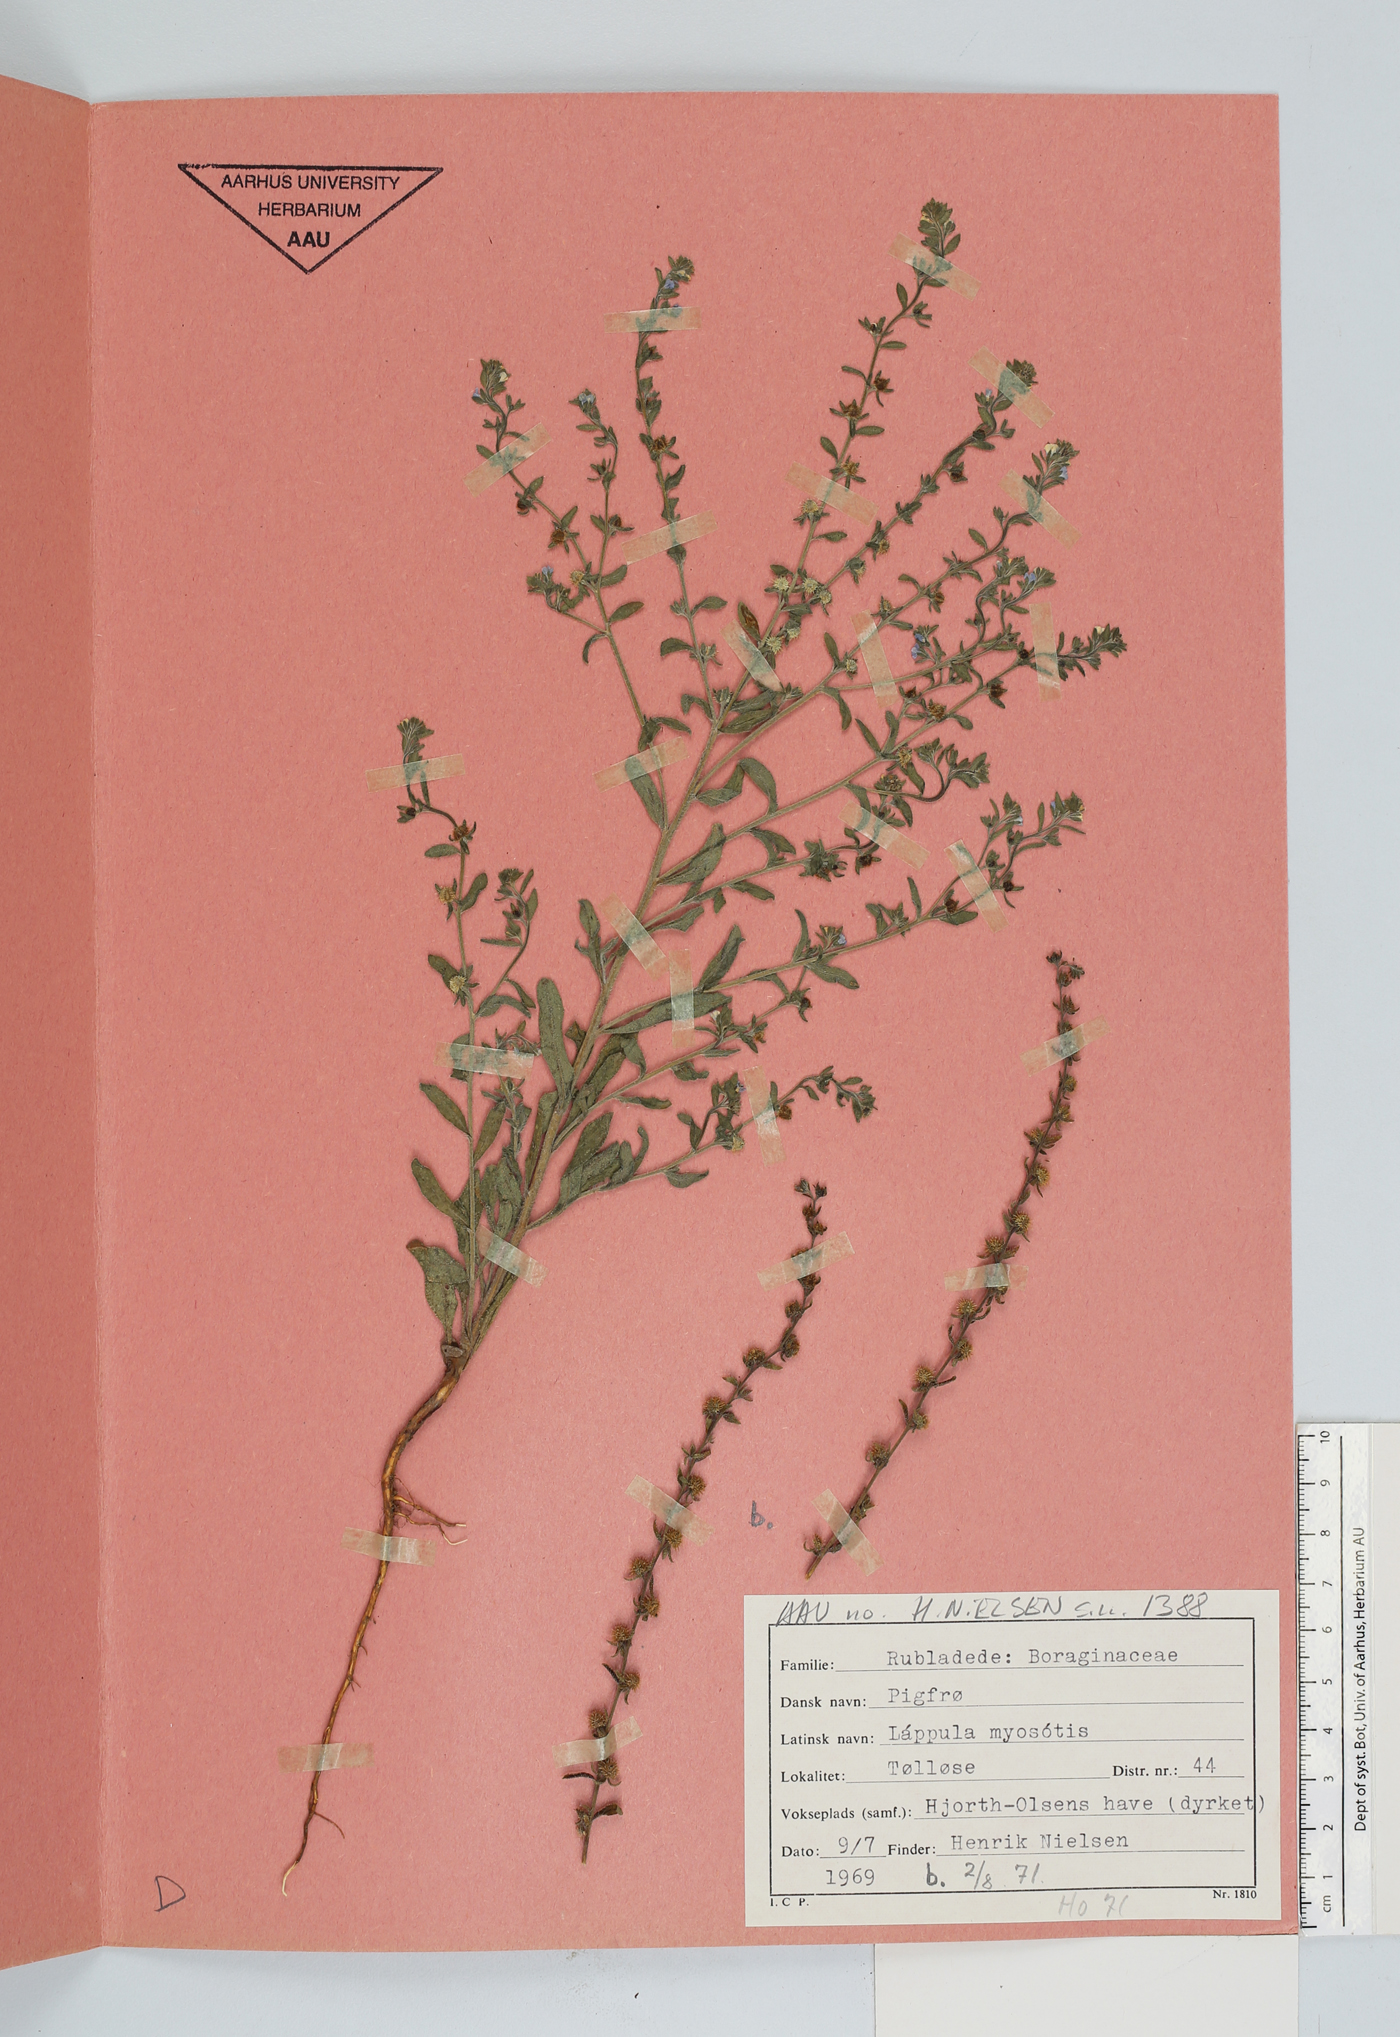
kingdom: Plantae
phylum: Tracheophyta
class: Magnoliopsida
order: Boraginales
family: Boraginaceae
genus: Lappula
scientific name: Lappula squarrosa
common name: European stickseed
